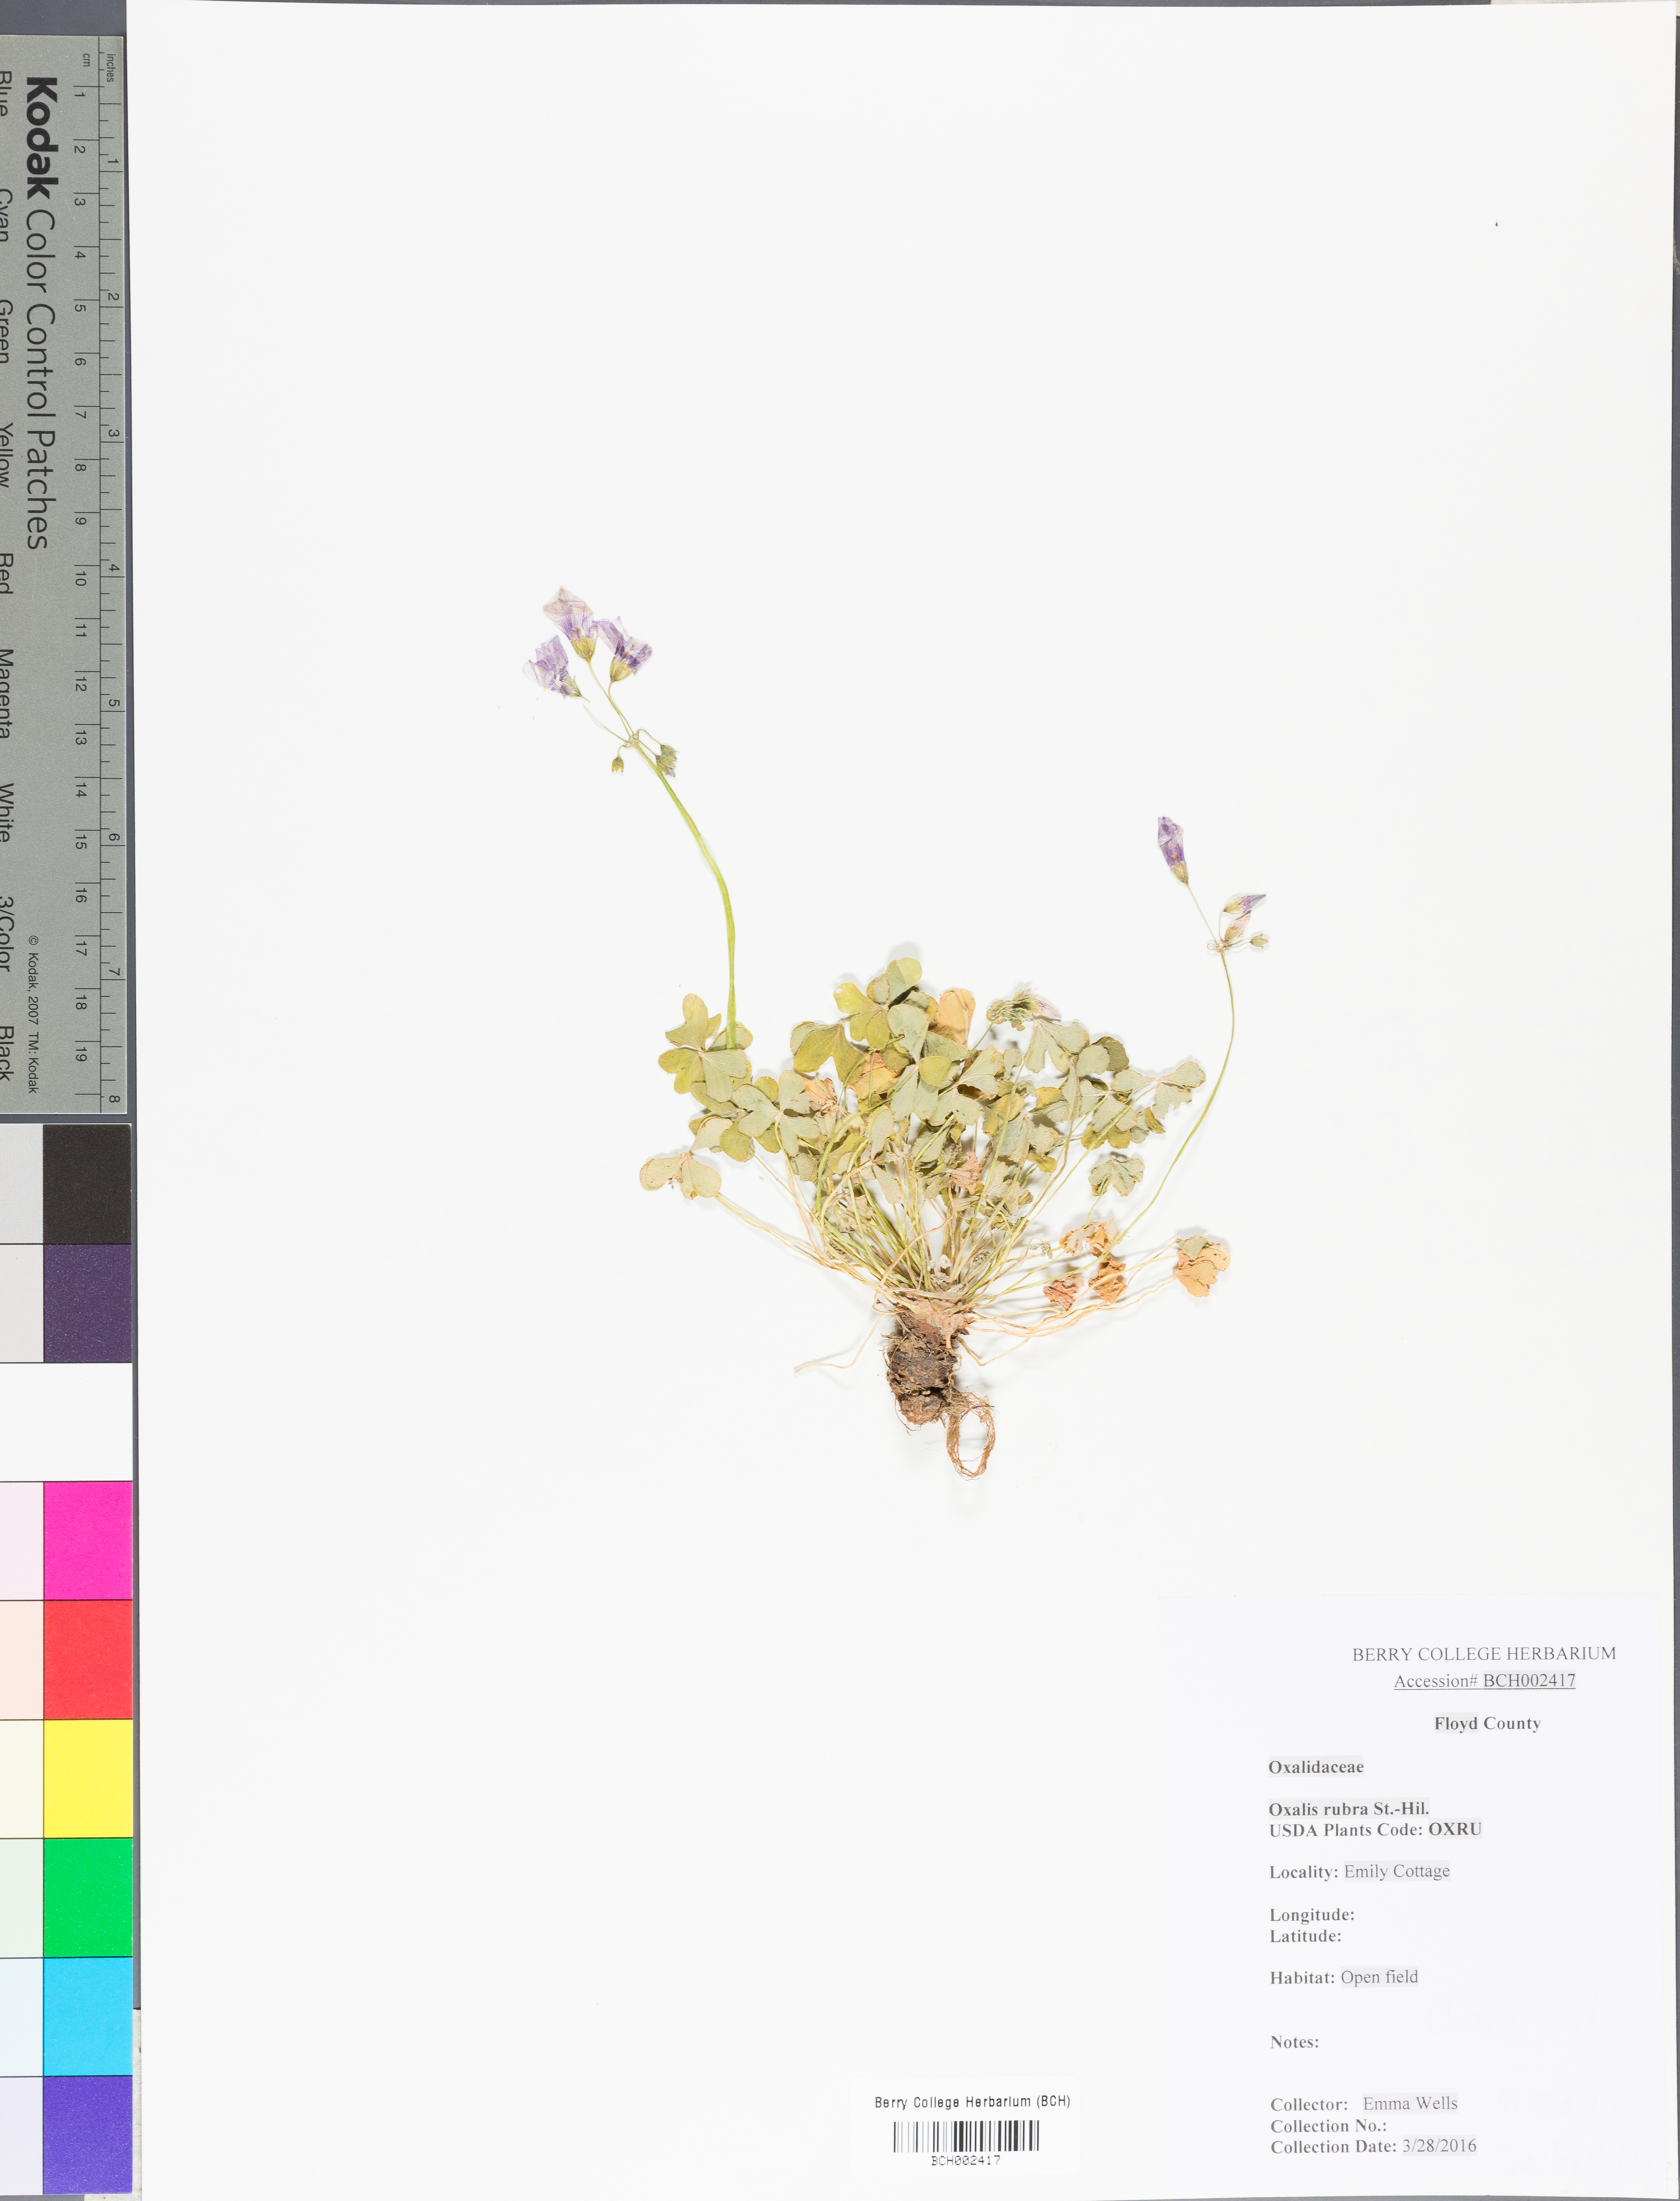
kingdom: Plantae
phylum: Tracheophyta
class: Magnoliopsida
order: Oxalidales
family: Oxalidaceae
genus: Oxalis
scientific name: Oxalis articulata
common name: Pink-sorrel
